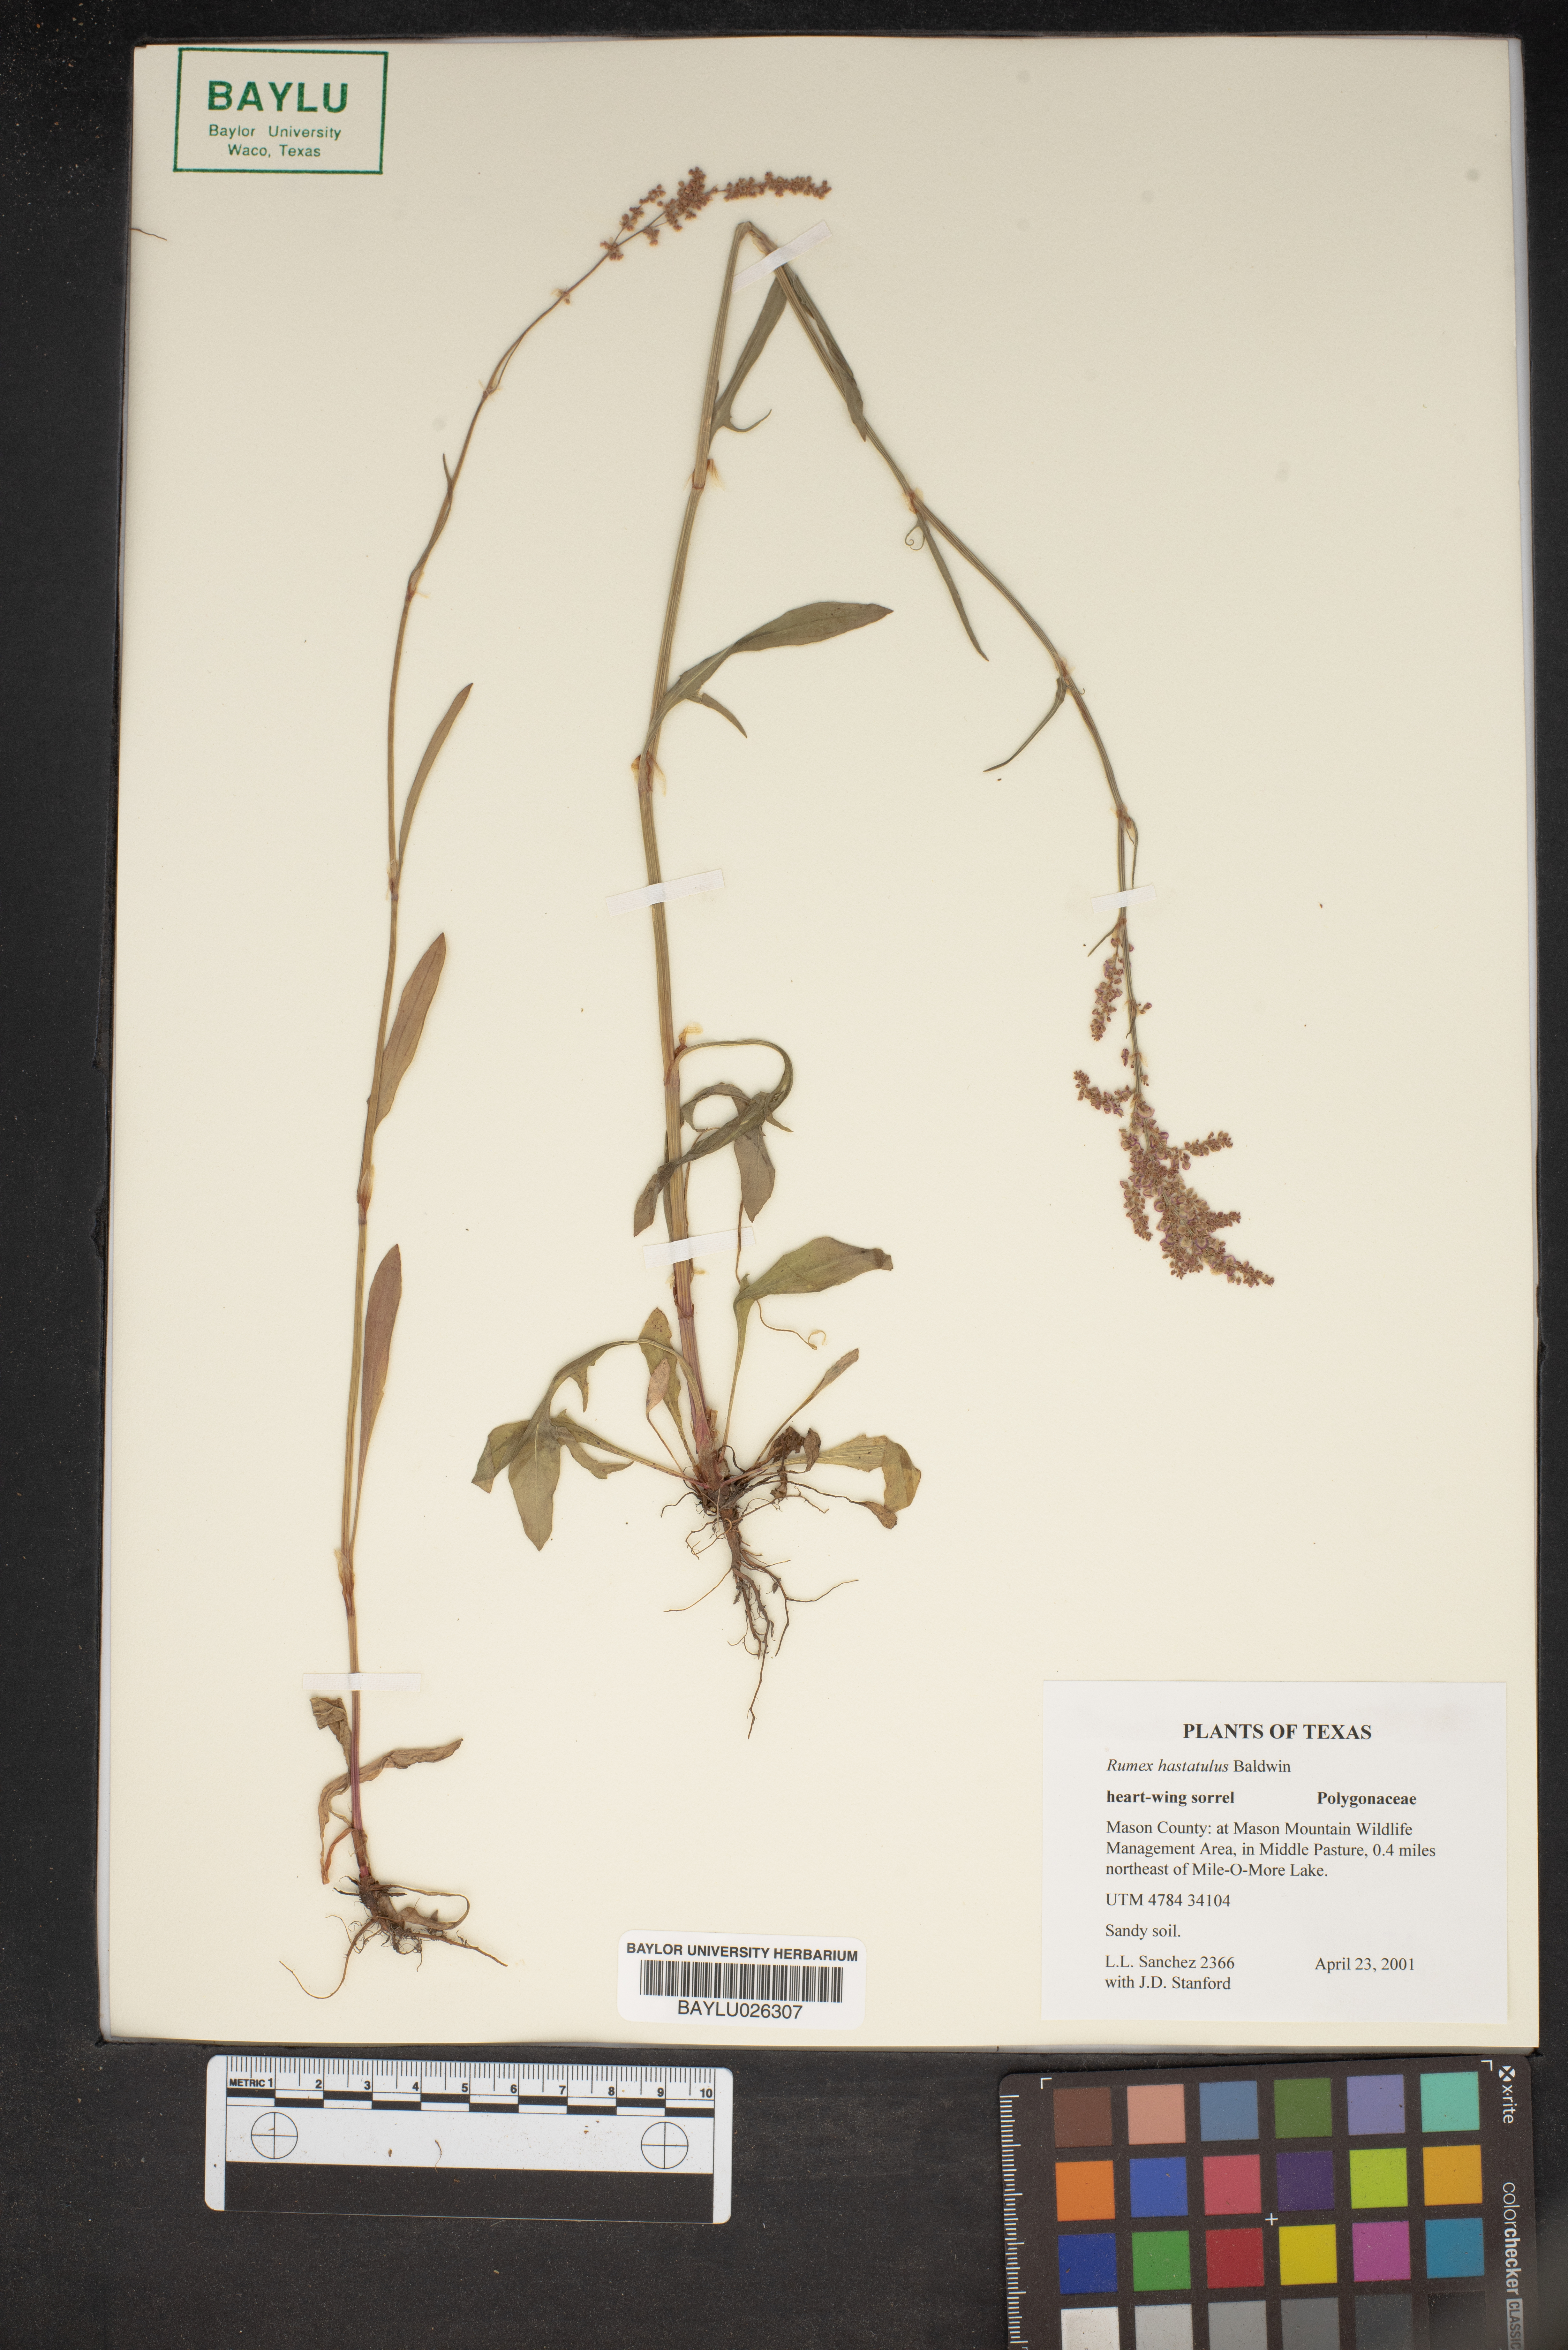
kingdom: Plantae
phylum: Tracheophyta
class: Magnoliopsida
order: Caryophyllales
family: Polygonaceae
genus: Rumex
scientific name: Rumex hastatulus
